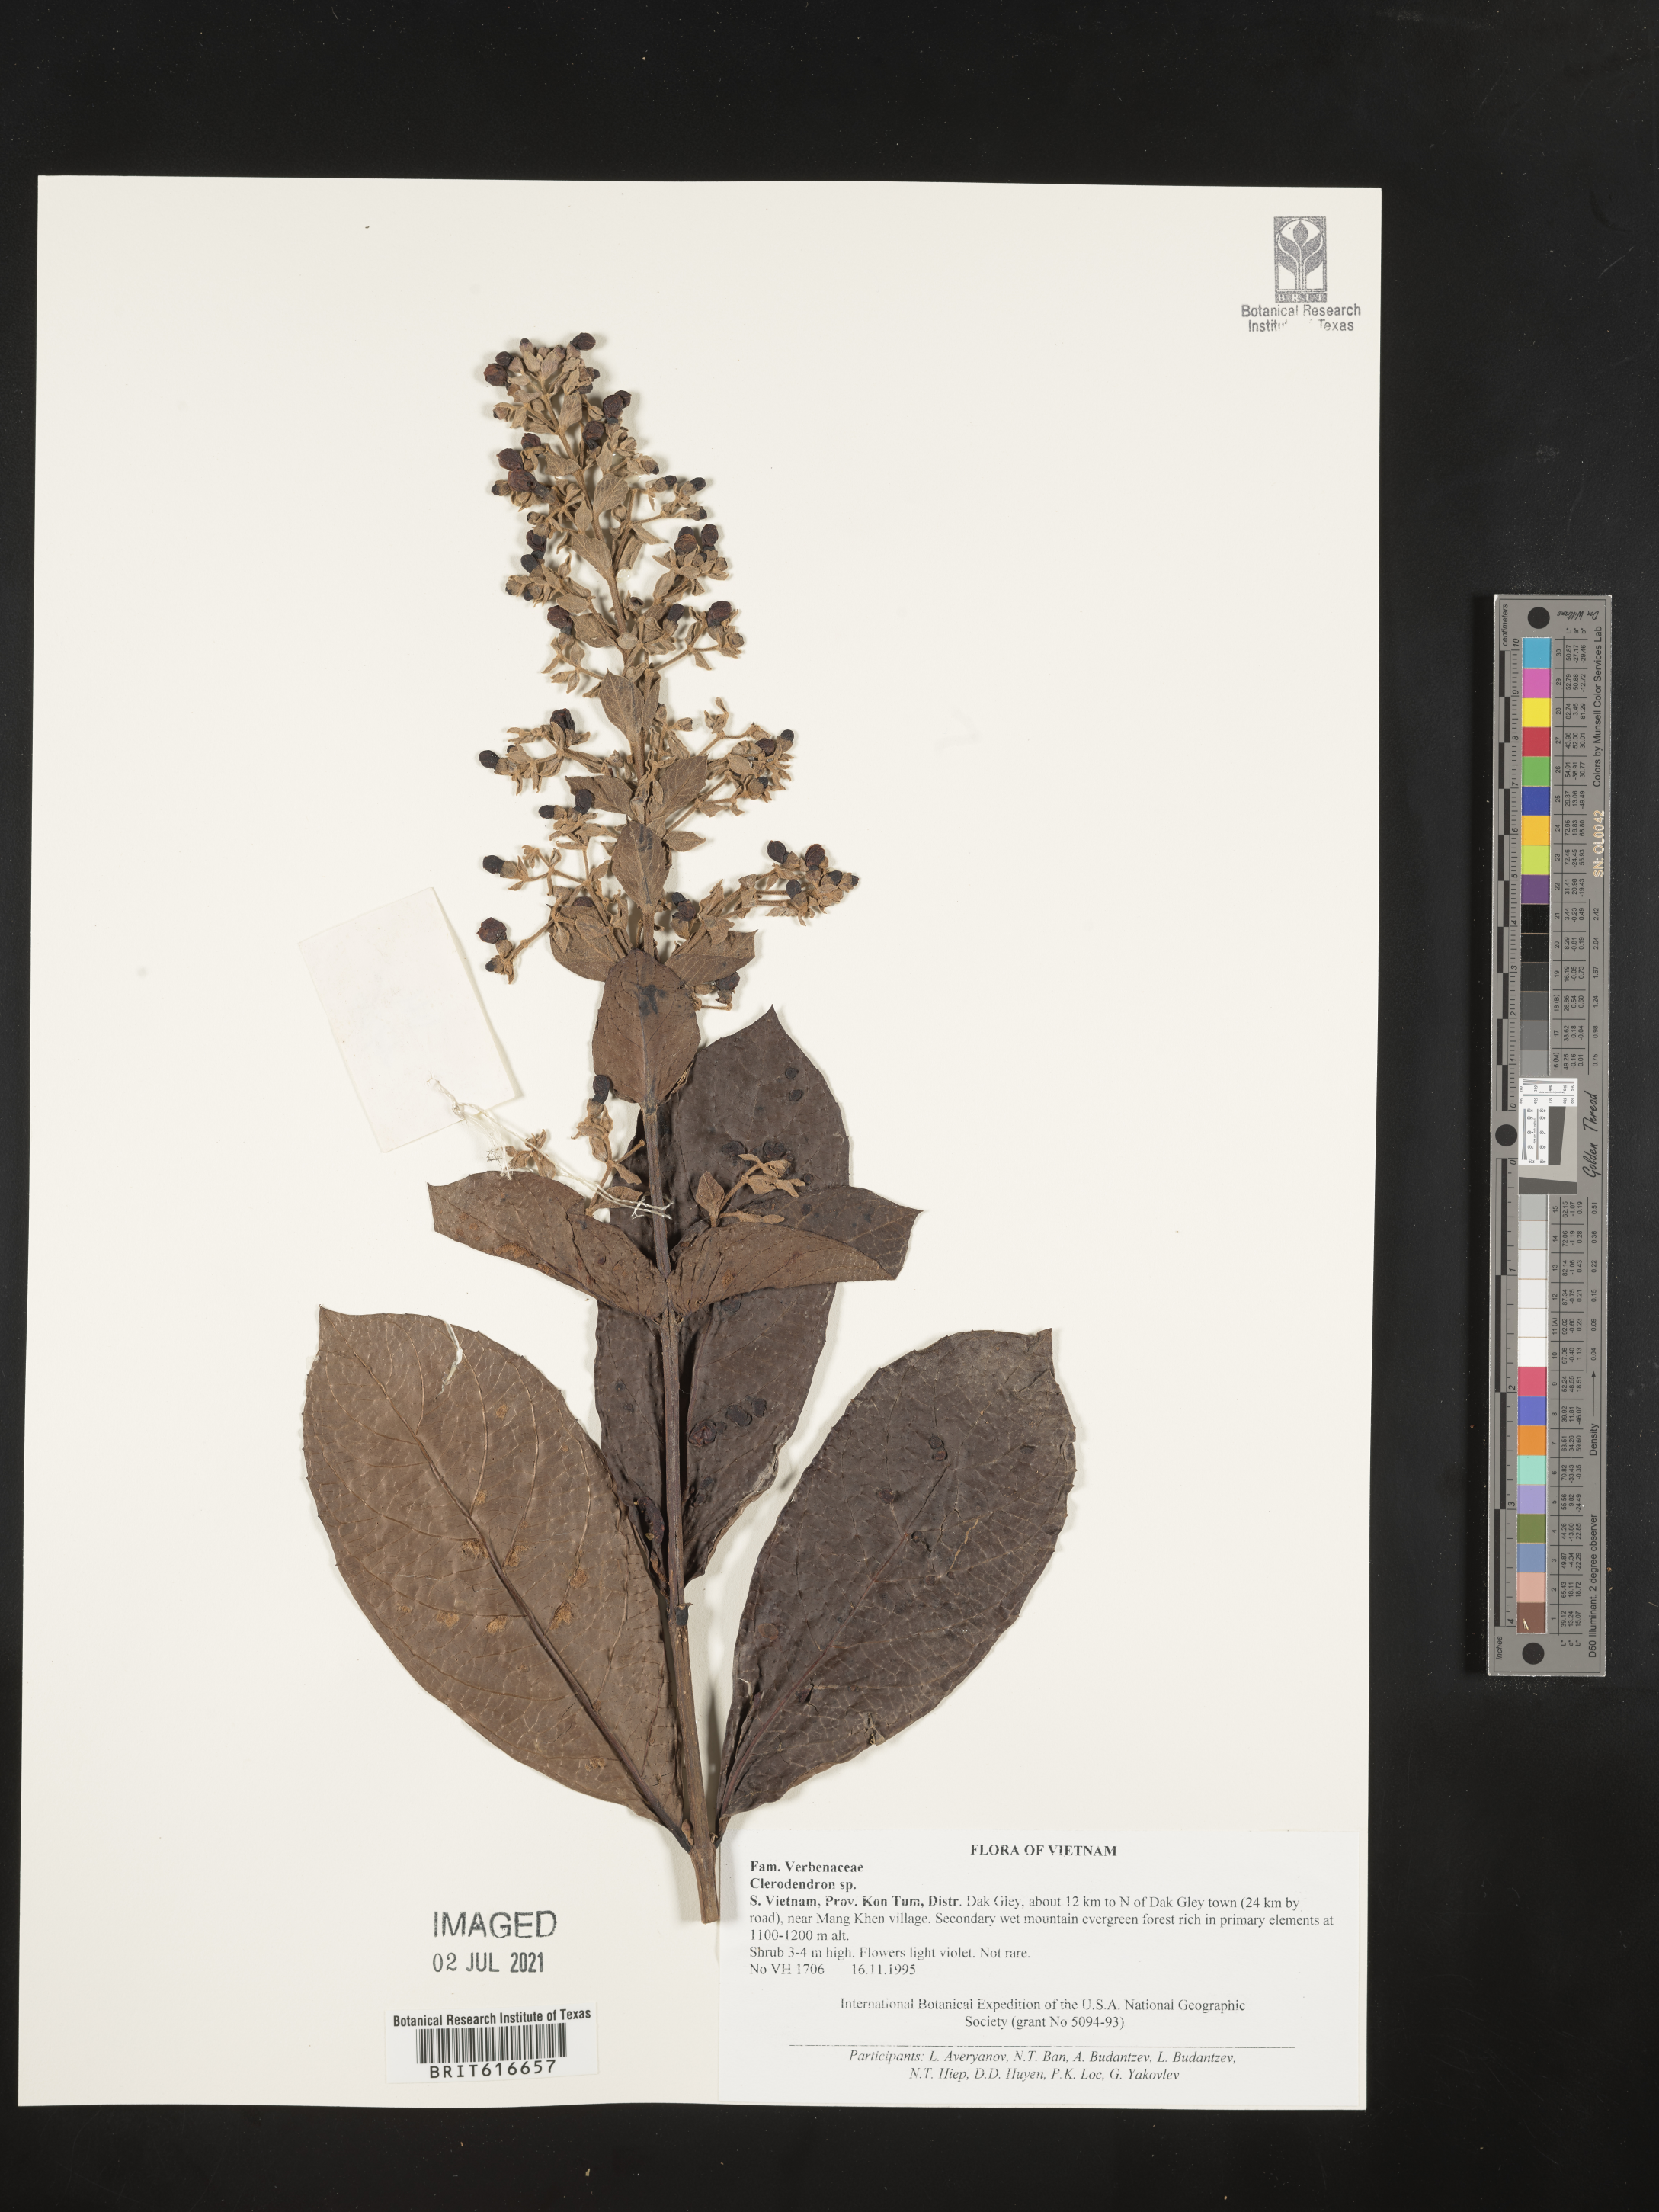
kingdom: Plantae
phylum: Tracheophyta
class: Magnoliopsida
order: Lamiales
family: Lamiaceae
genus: Clerodendrum
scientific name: Clerodendrum
